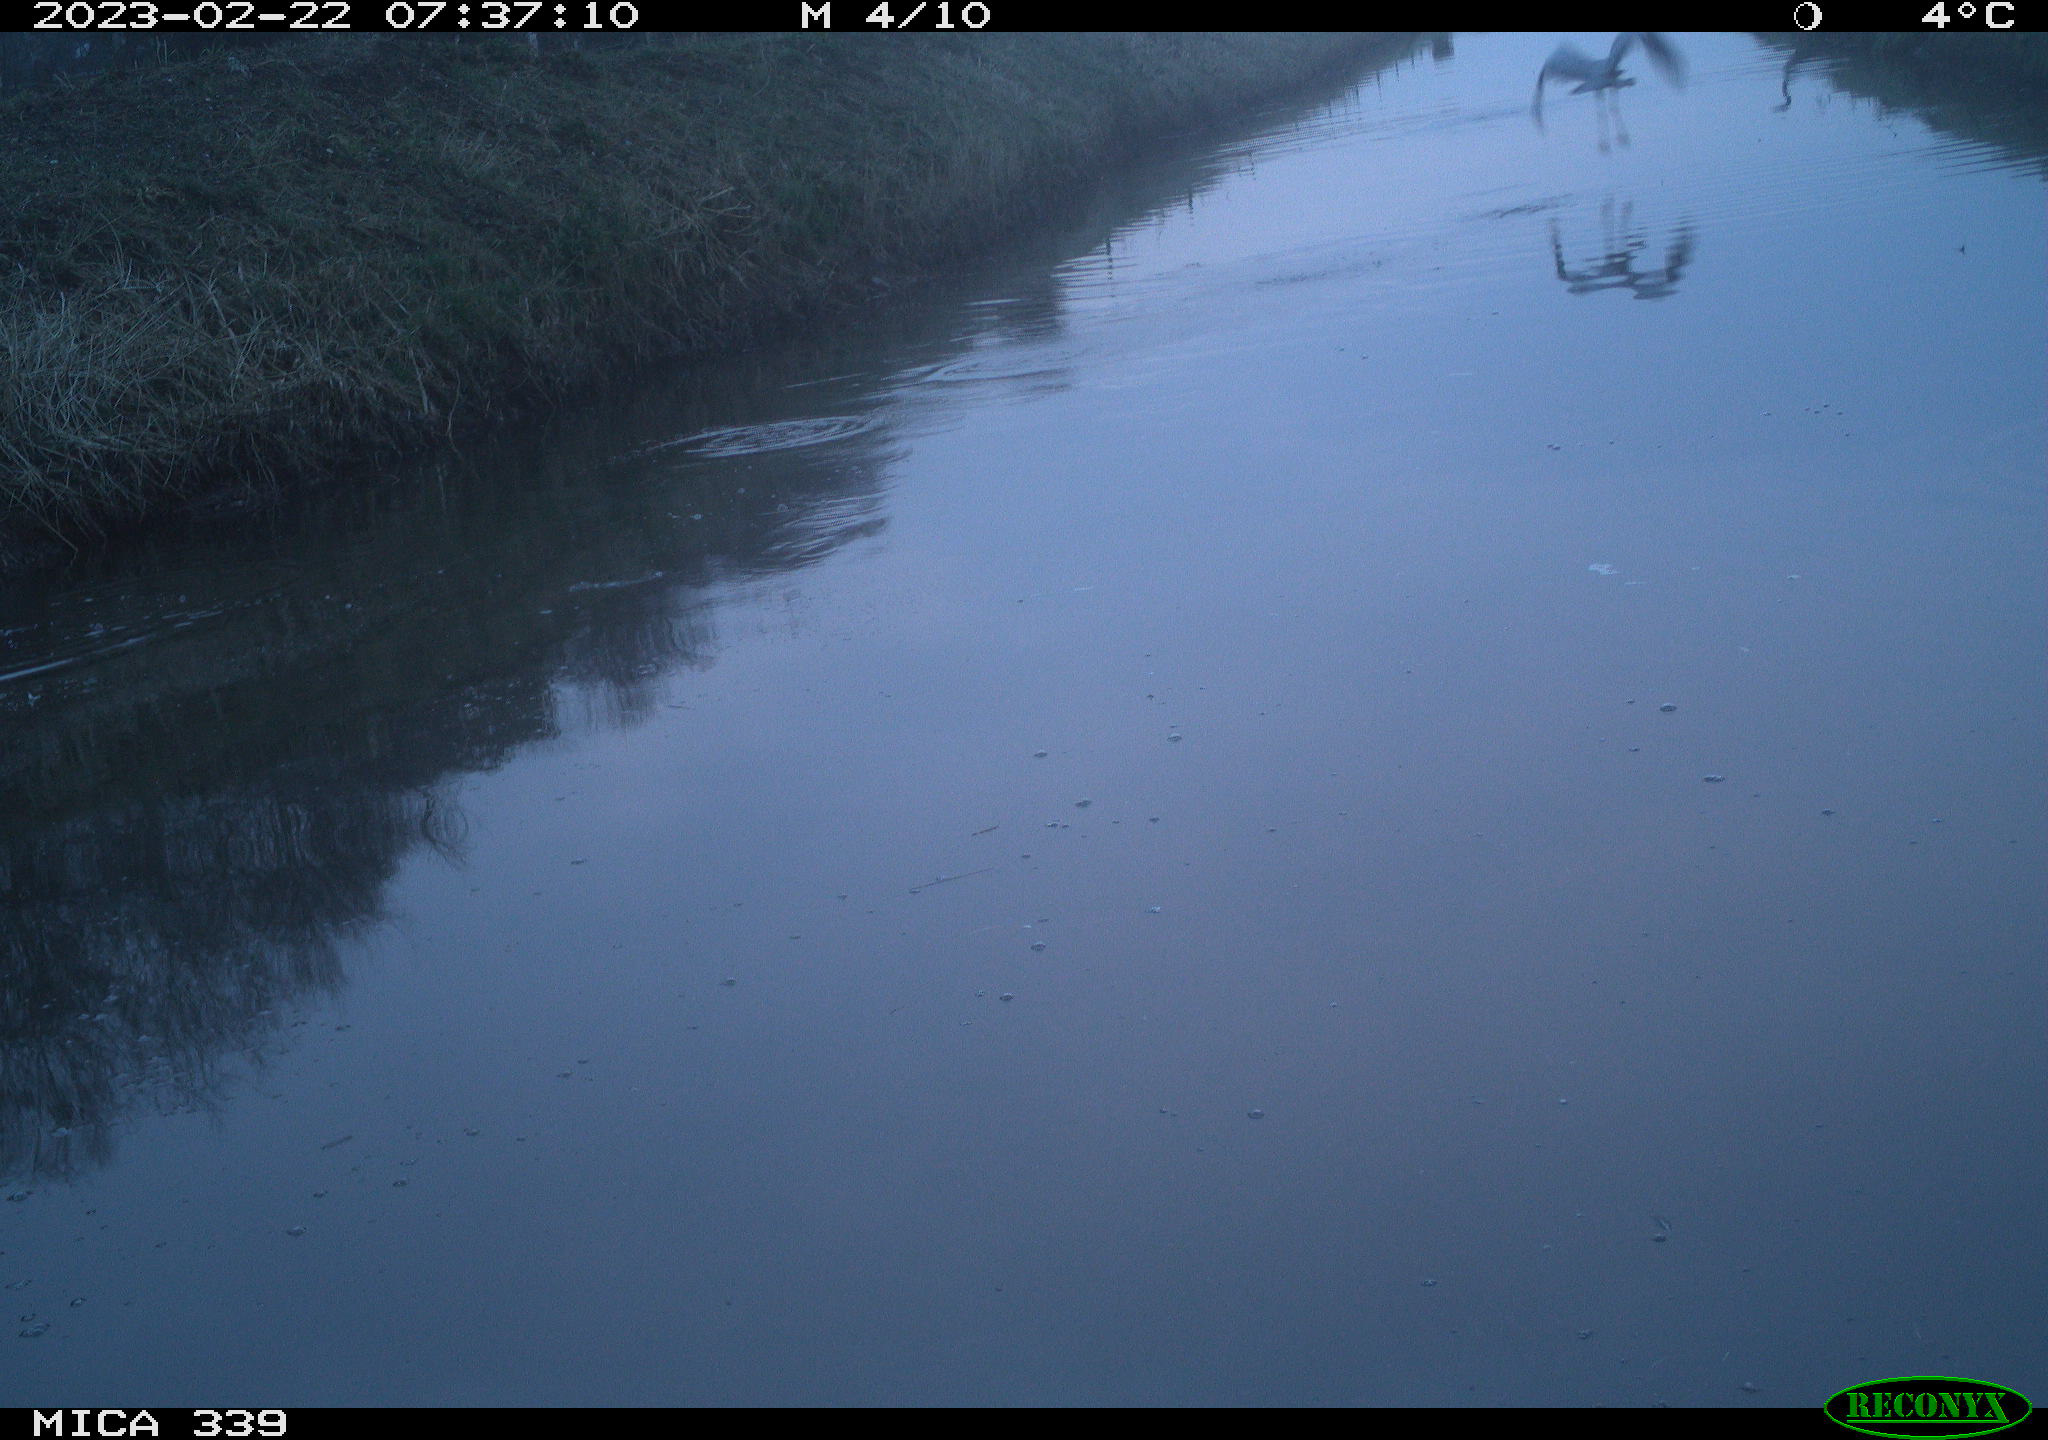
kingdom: Animalia
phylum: Chordata
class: Aves
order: Pelecaniformes
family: Ardeidae
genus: Ardea
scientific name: Ardea cinerea
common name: Grey heron
